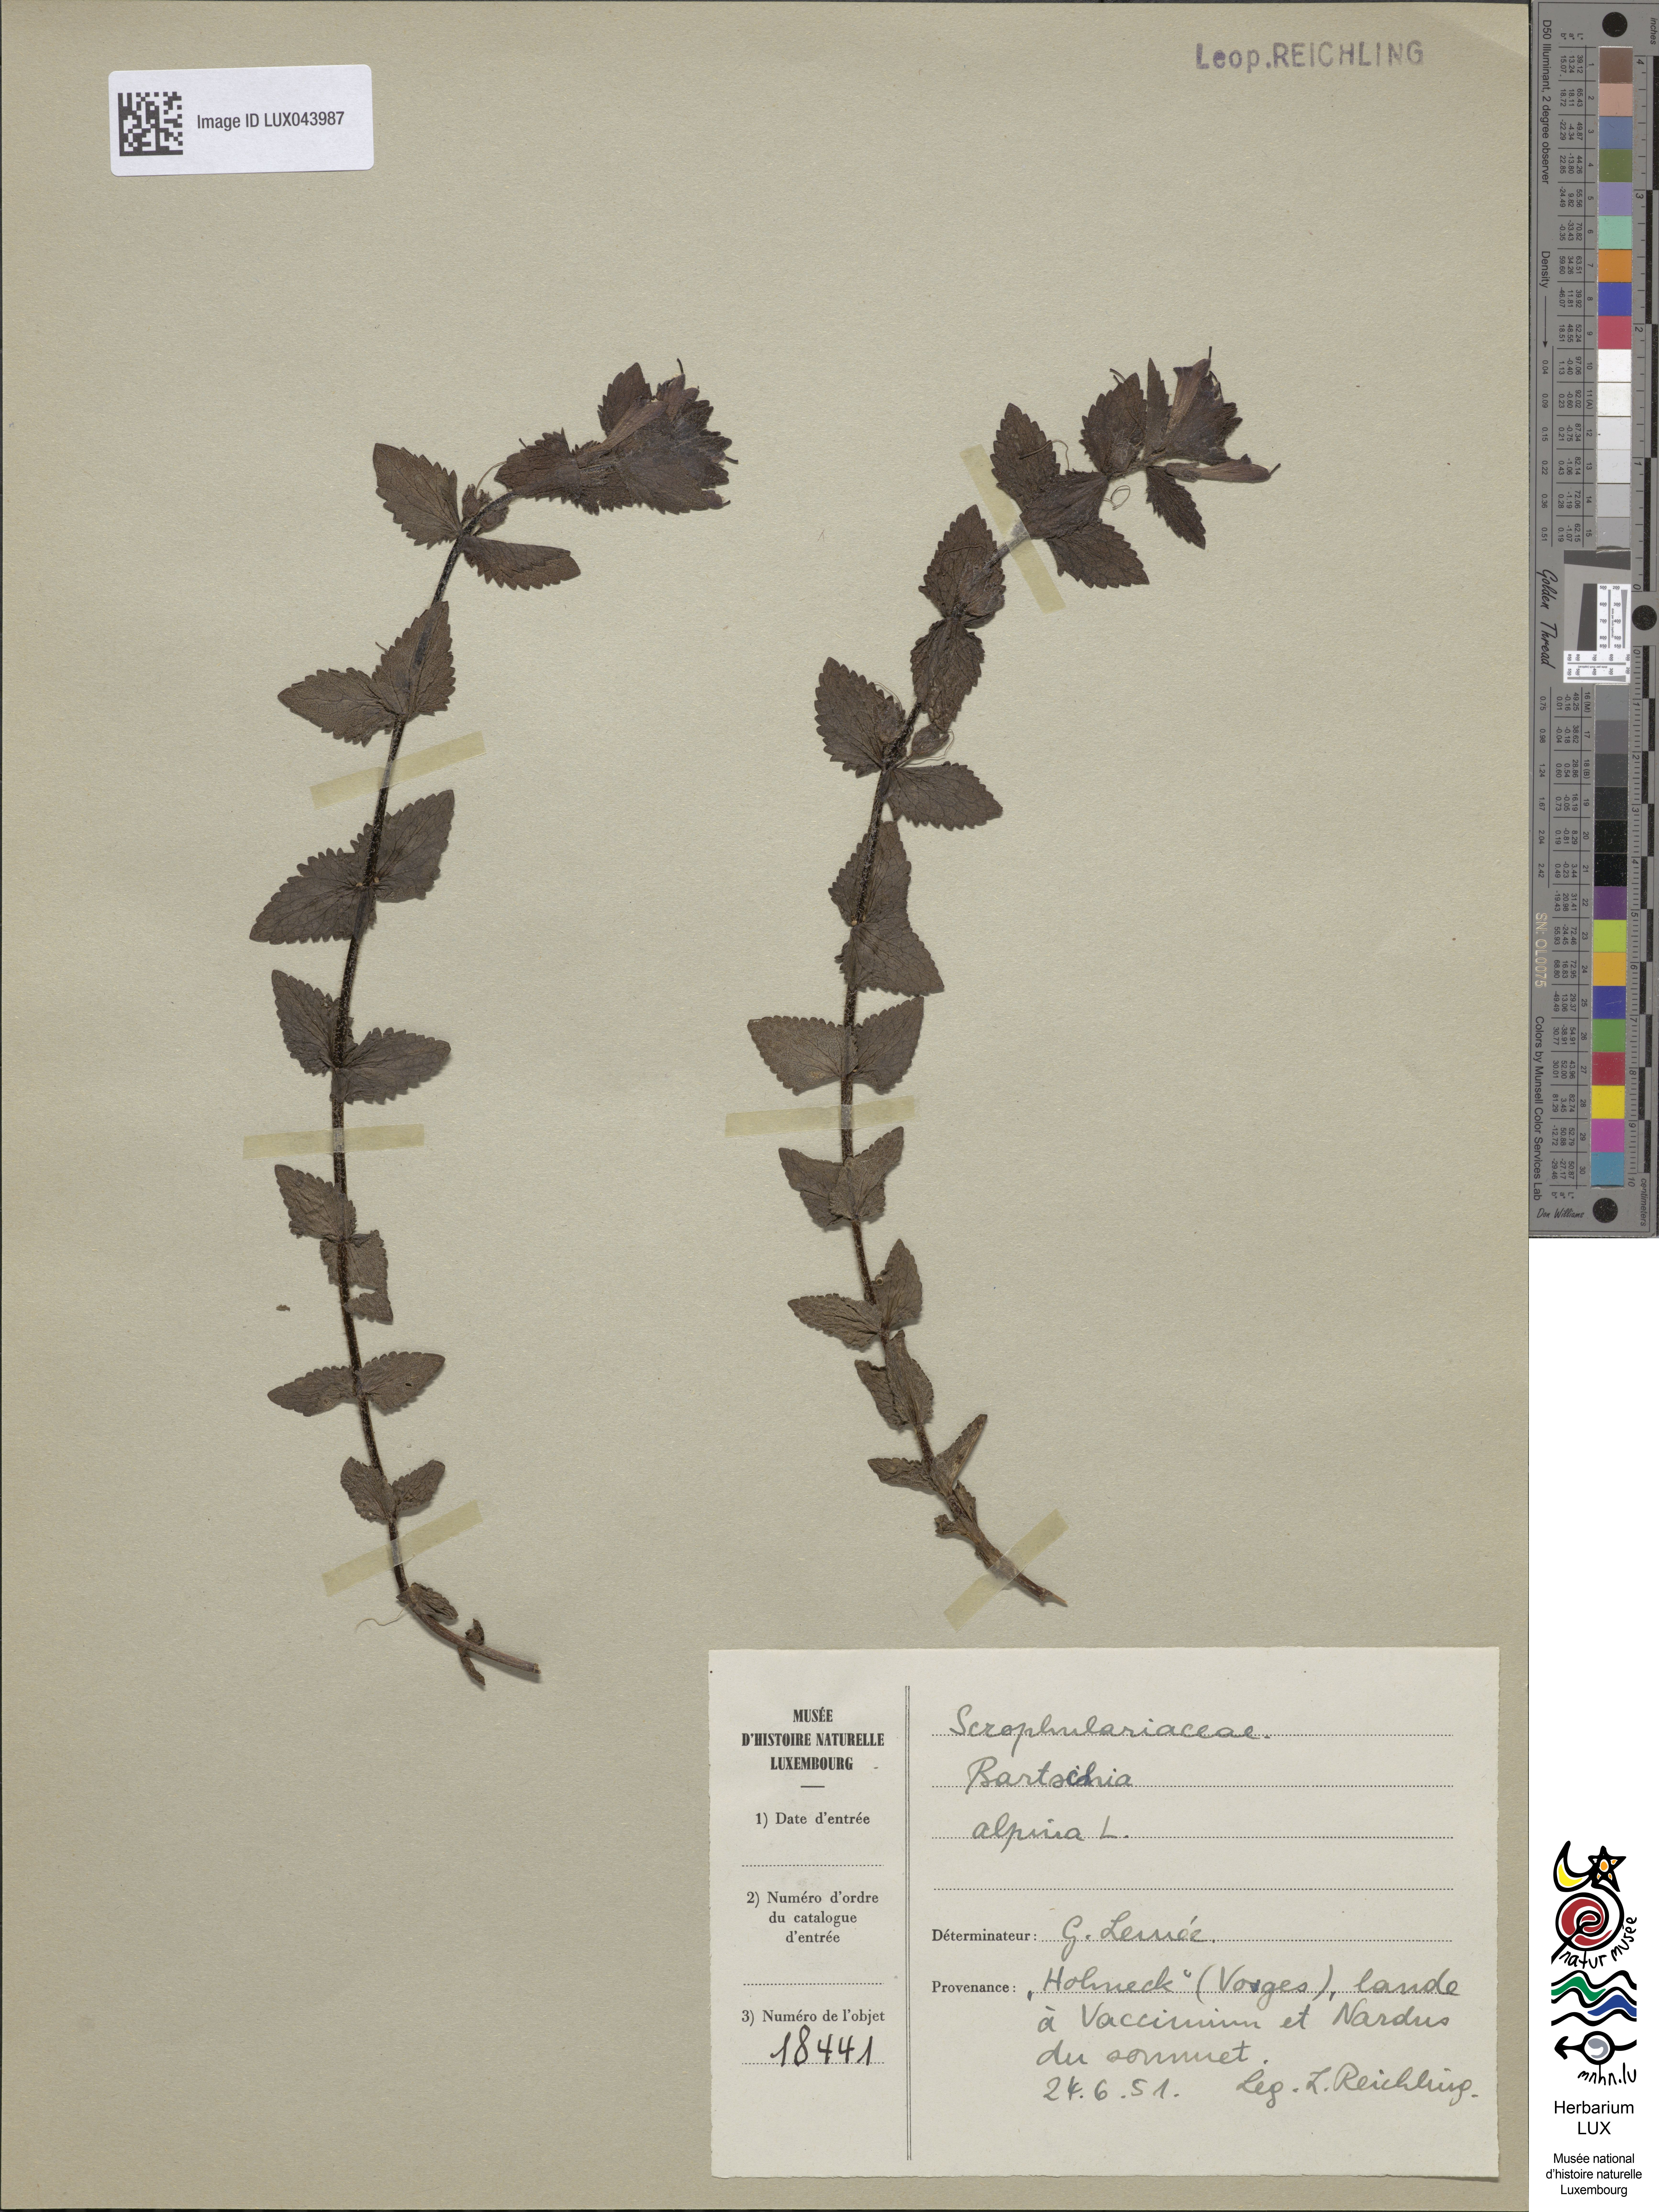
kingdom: Plantae
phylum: Tracheophyta
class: Magnoliopsida
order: Lamiales
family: Orobanchaceae
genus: Bartsia
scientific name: Bartsia alpina
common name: Alpine bartsia
